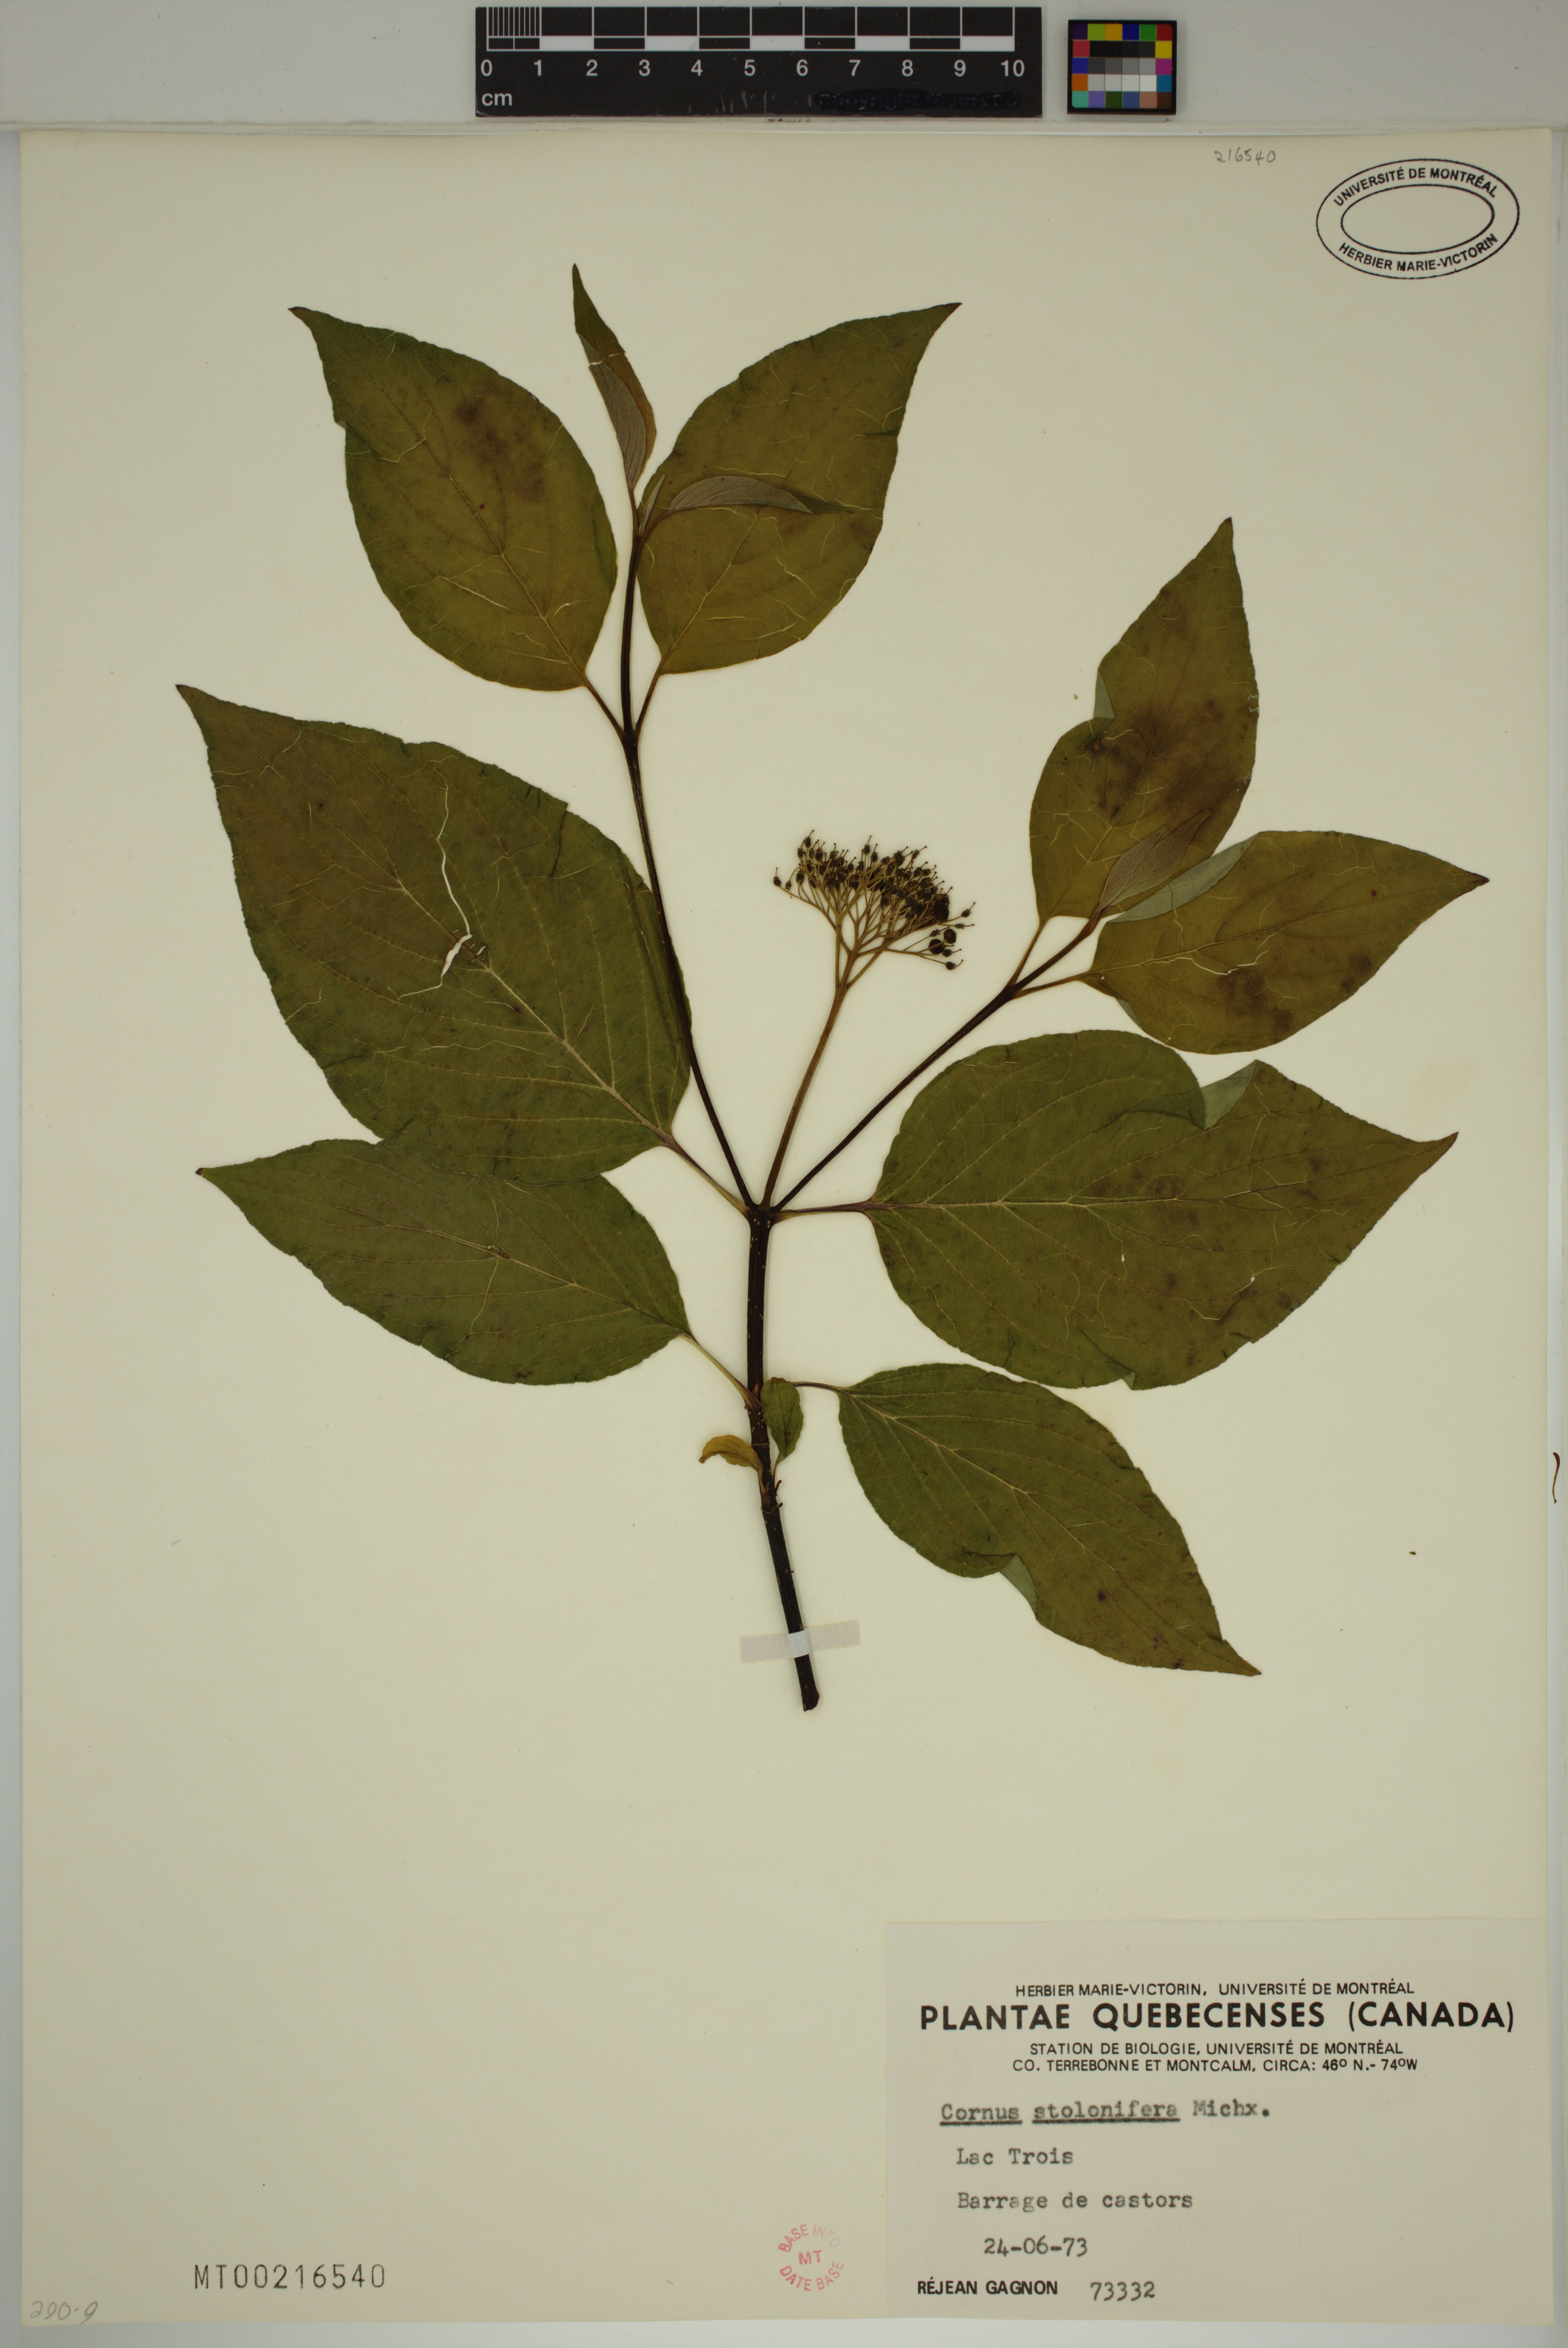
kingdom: Plantae
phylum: Tracheophyta
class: Magnoliopsida
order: Cornales
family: Cornaceae
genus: Cornus
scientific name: Cornus sericea
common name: Red-osier dogwood
